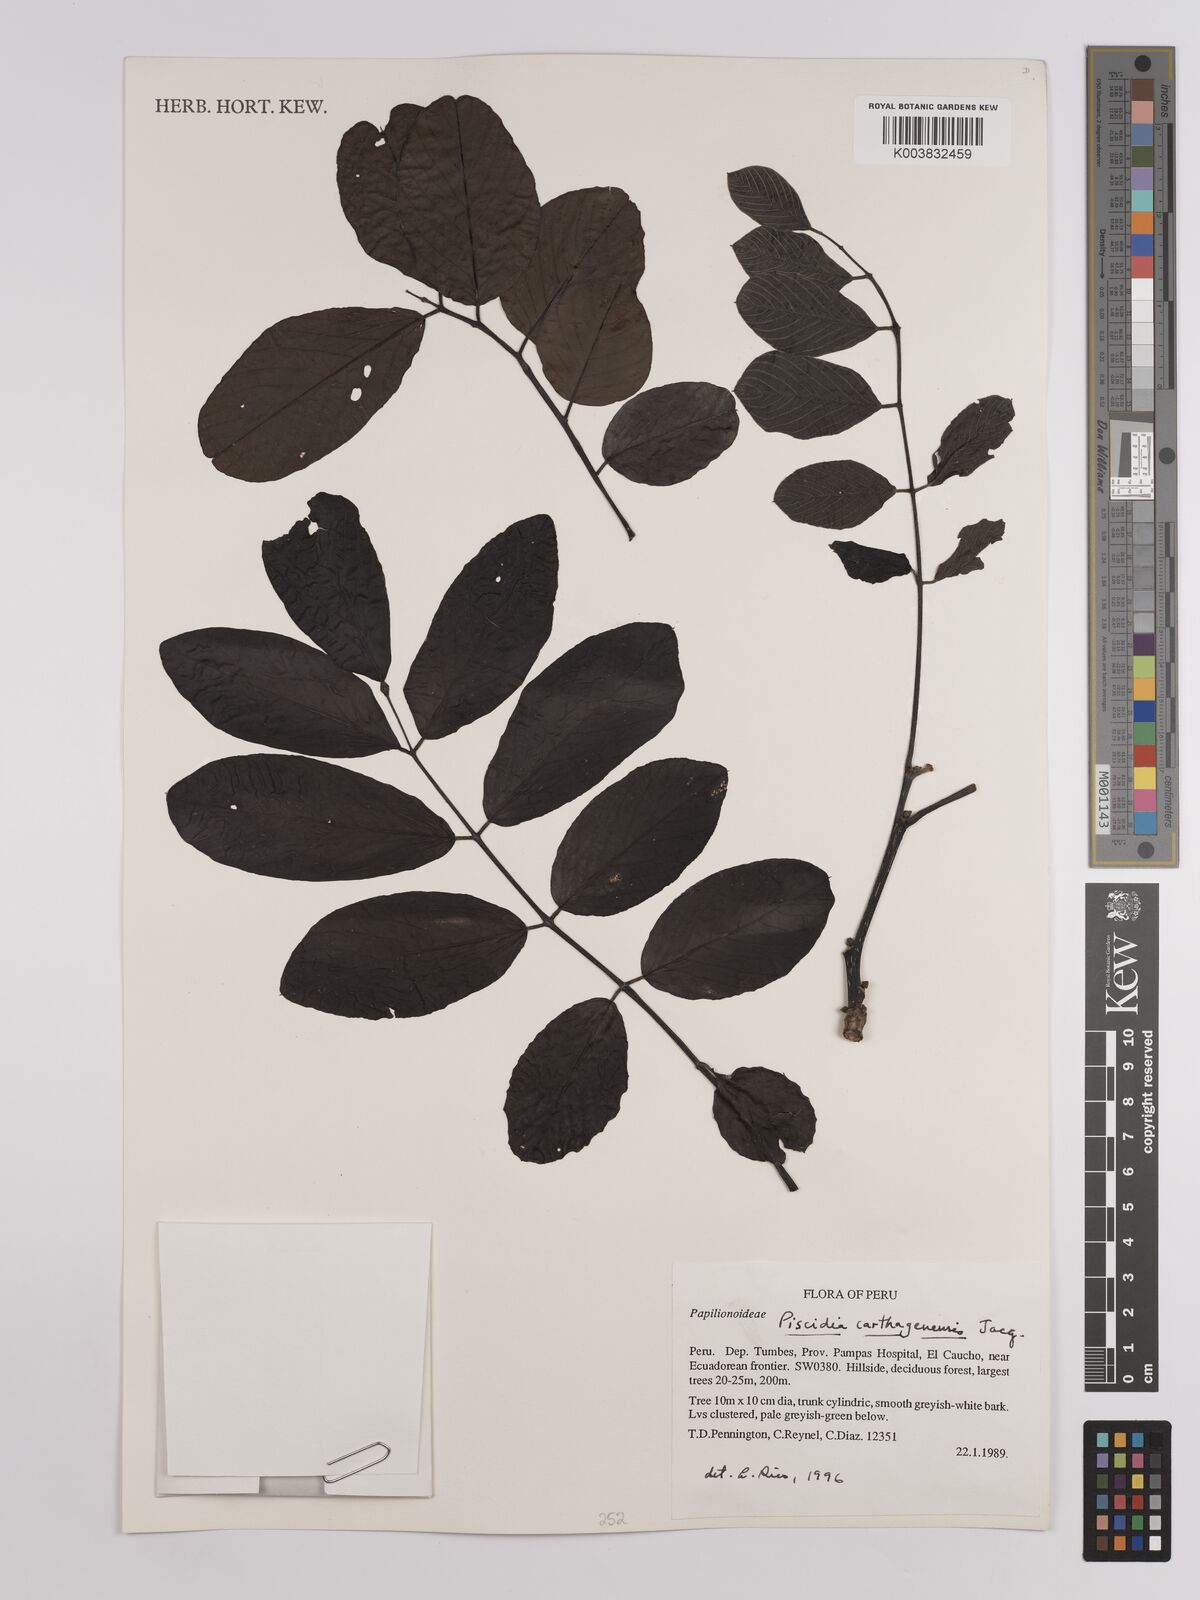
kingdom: Plantae
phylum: Tracheophyta
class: Magnoliopsida
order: Fabales
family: Fabaceae
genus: Piscidia
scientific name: Piscidia carthagenensis
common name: Stinkwood
